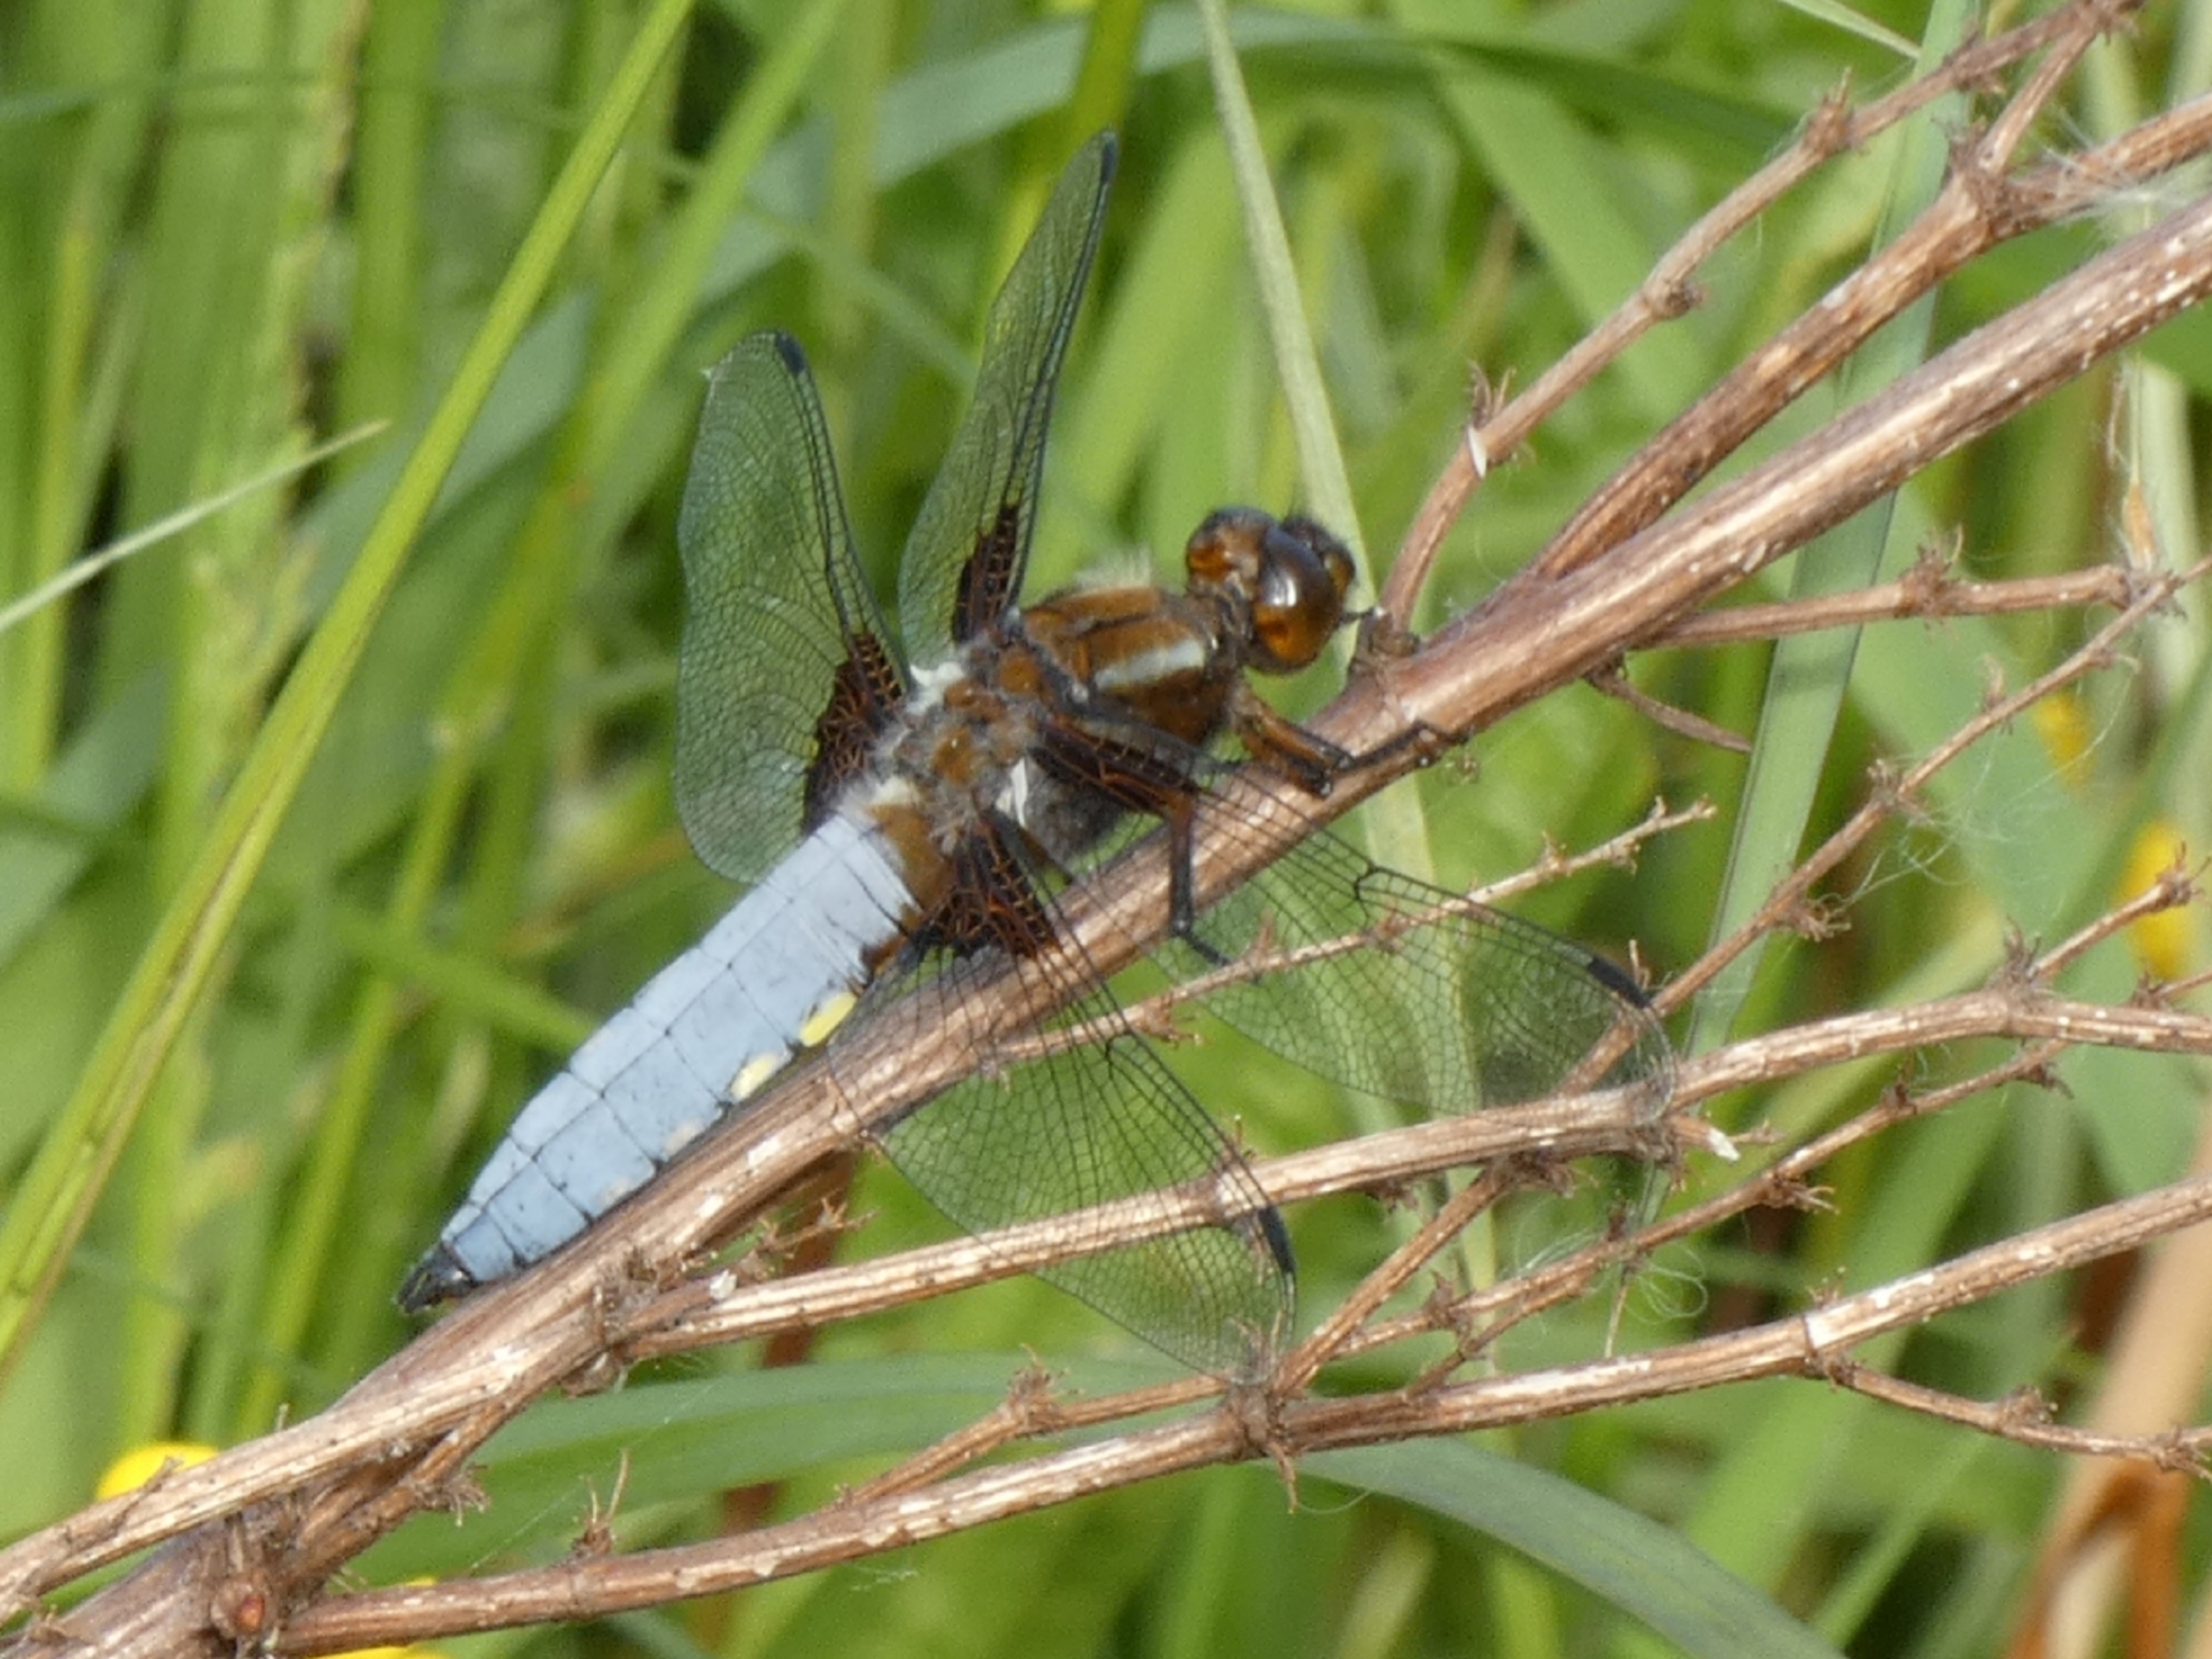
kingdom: Animalia
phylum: Arthropoda
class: Insecta
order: Odonata
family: Libellulidae
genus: Libellula
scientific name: Libellula depressa
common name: Blå libel
